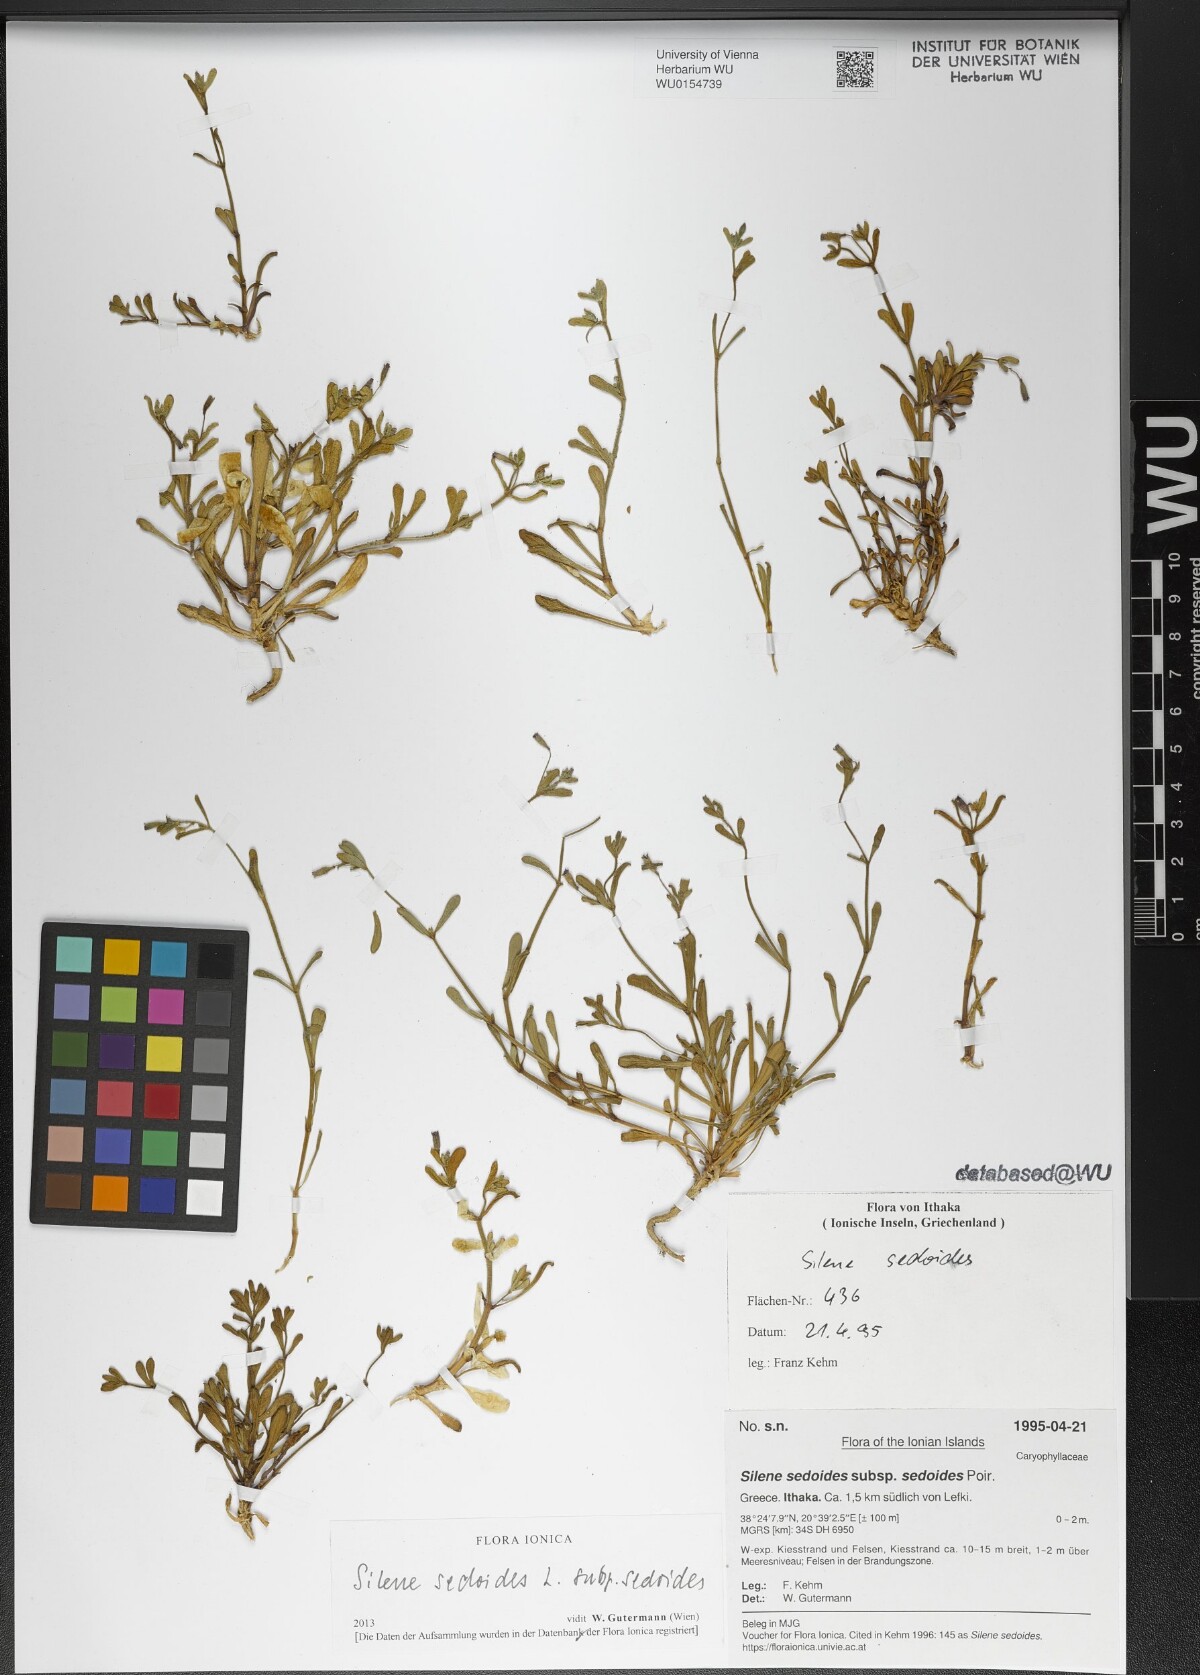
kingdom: Plantae
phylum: Tracheophyta
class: Magnoliopsida
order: Caryophyllales
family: Caryophyllaceae
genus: Silene
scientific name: Silene sedoides
